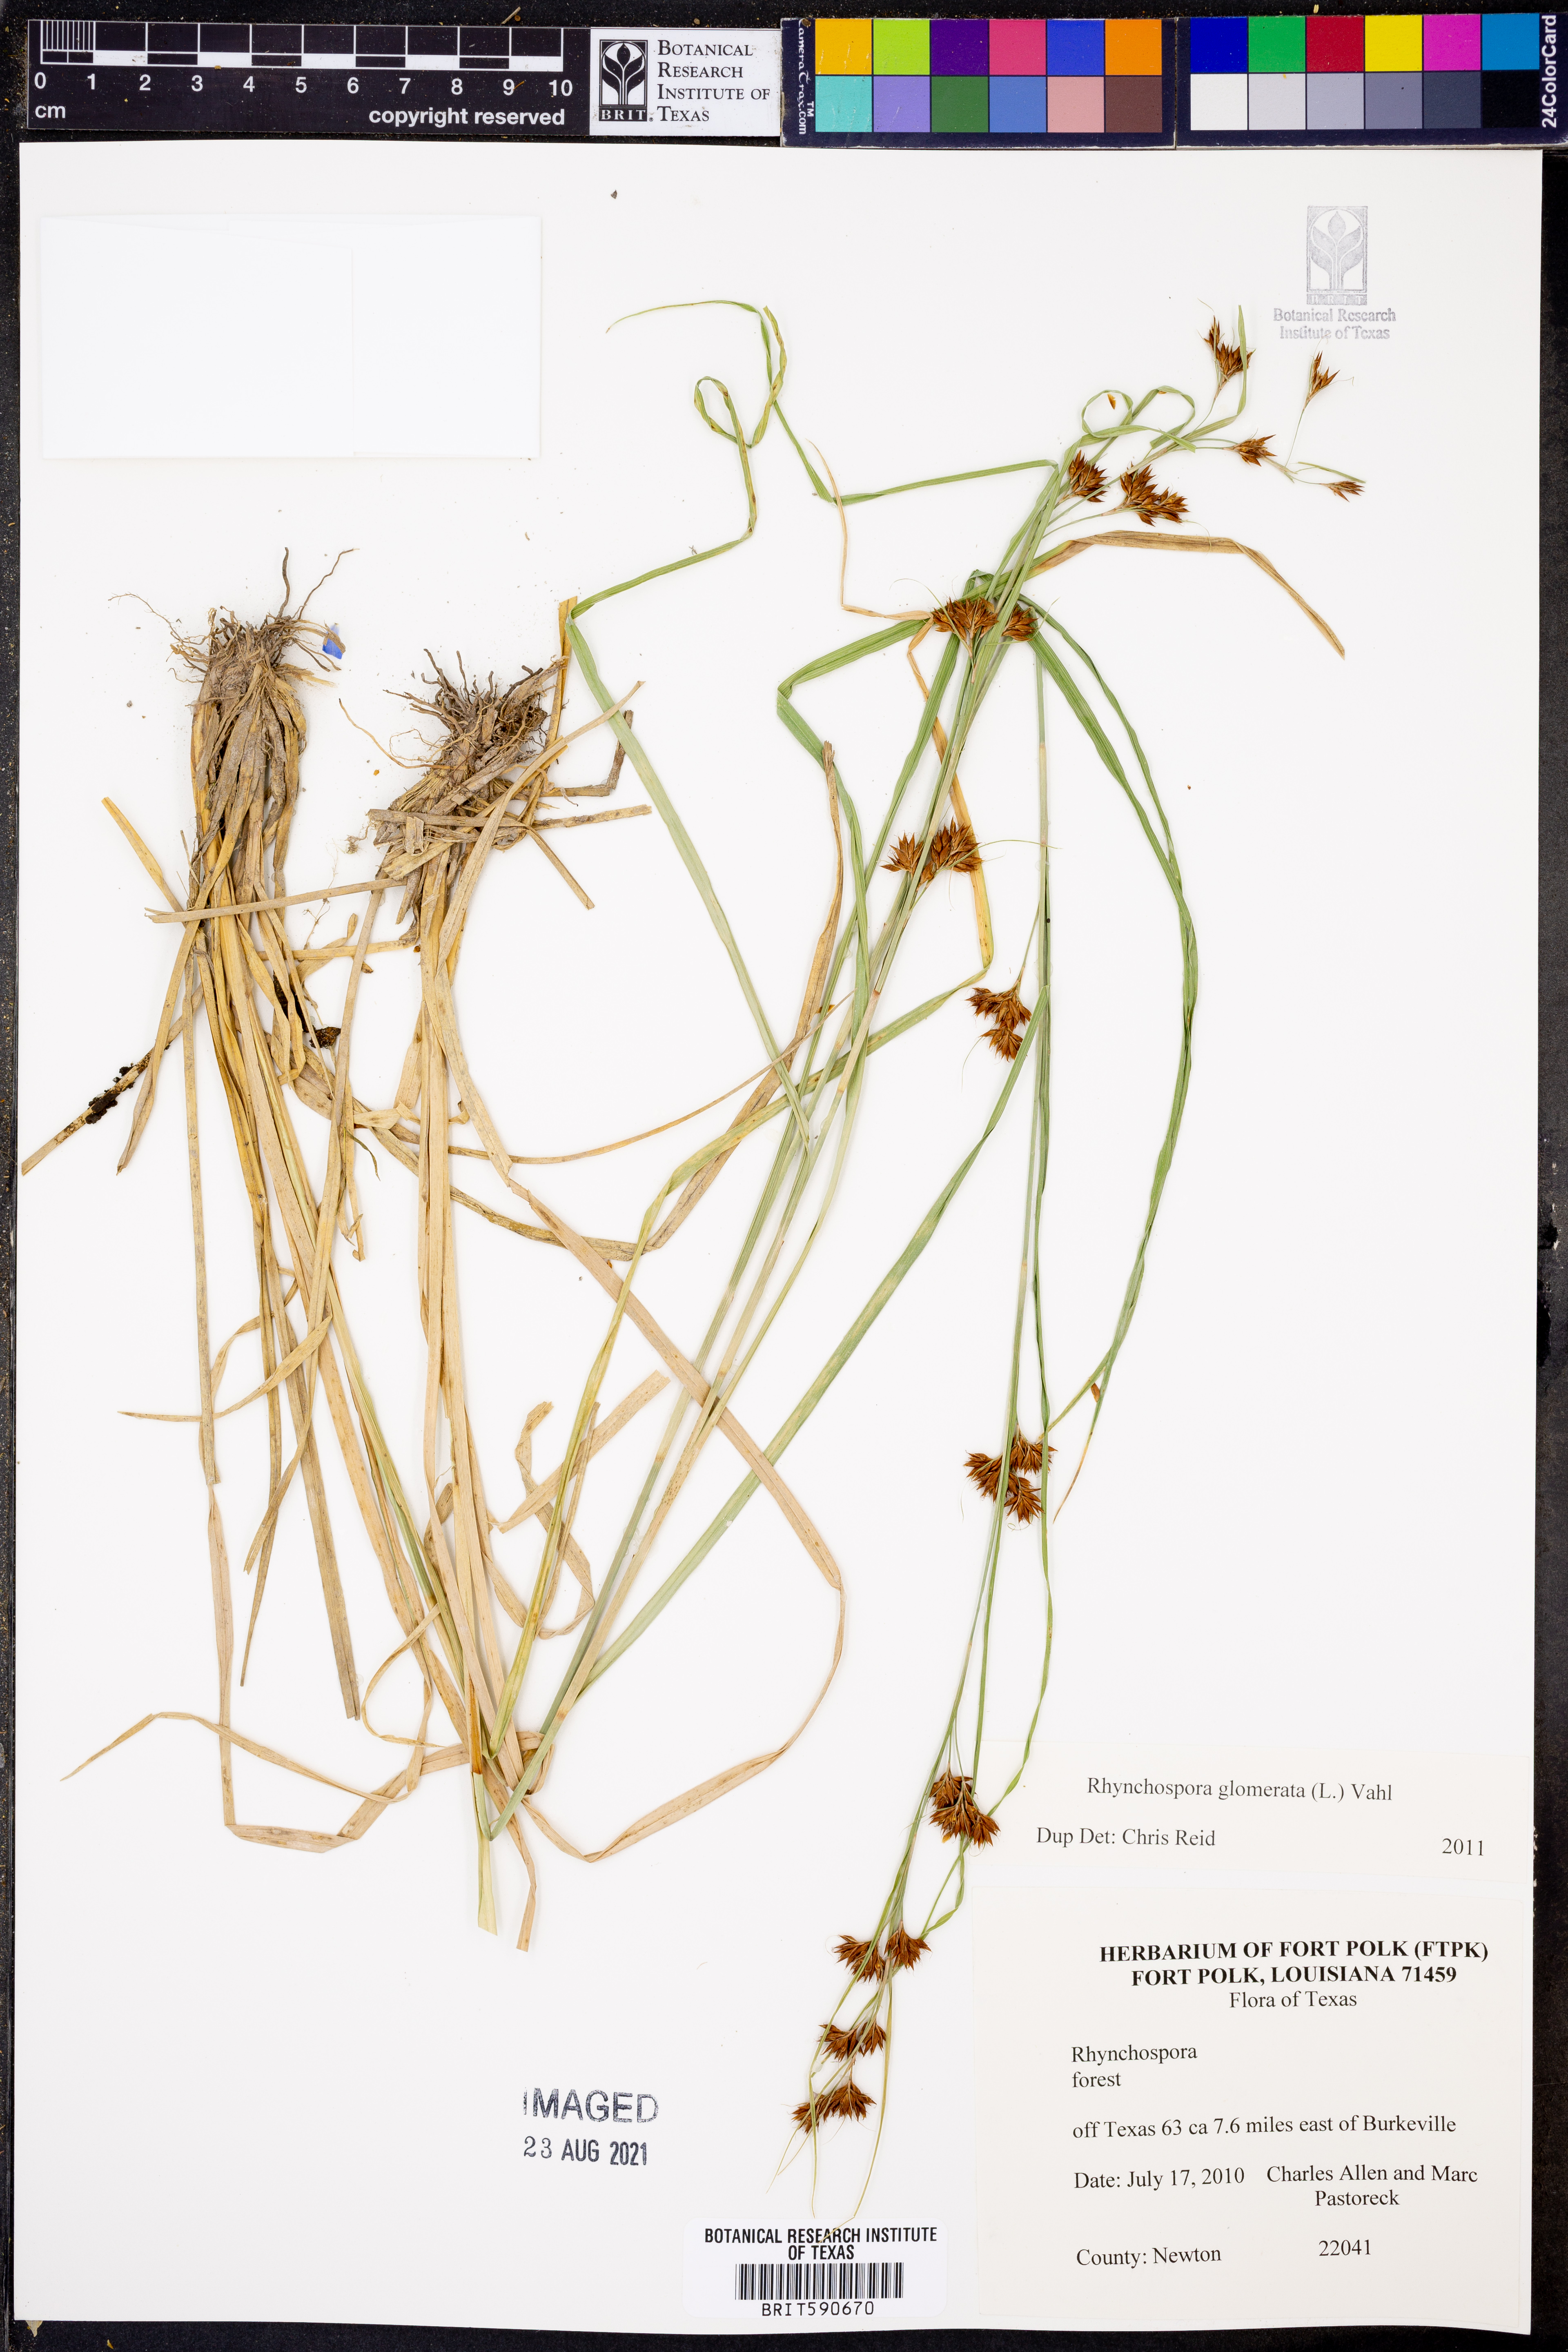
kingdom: Plantae
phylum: Tracheophyta
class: Liliopsida
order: Poales
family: Cyperaceae
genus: Rhynchospora
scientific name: Rhynchospora glomerata
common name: Cluster beak sedge
